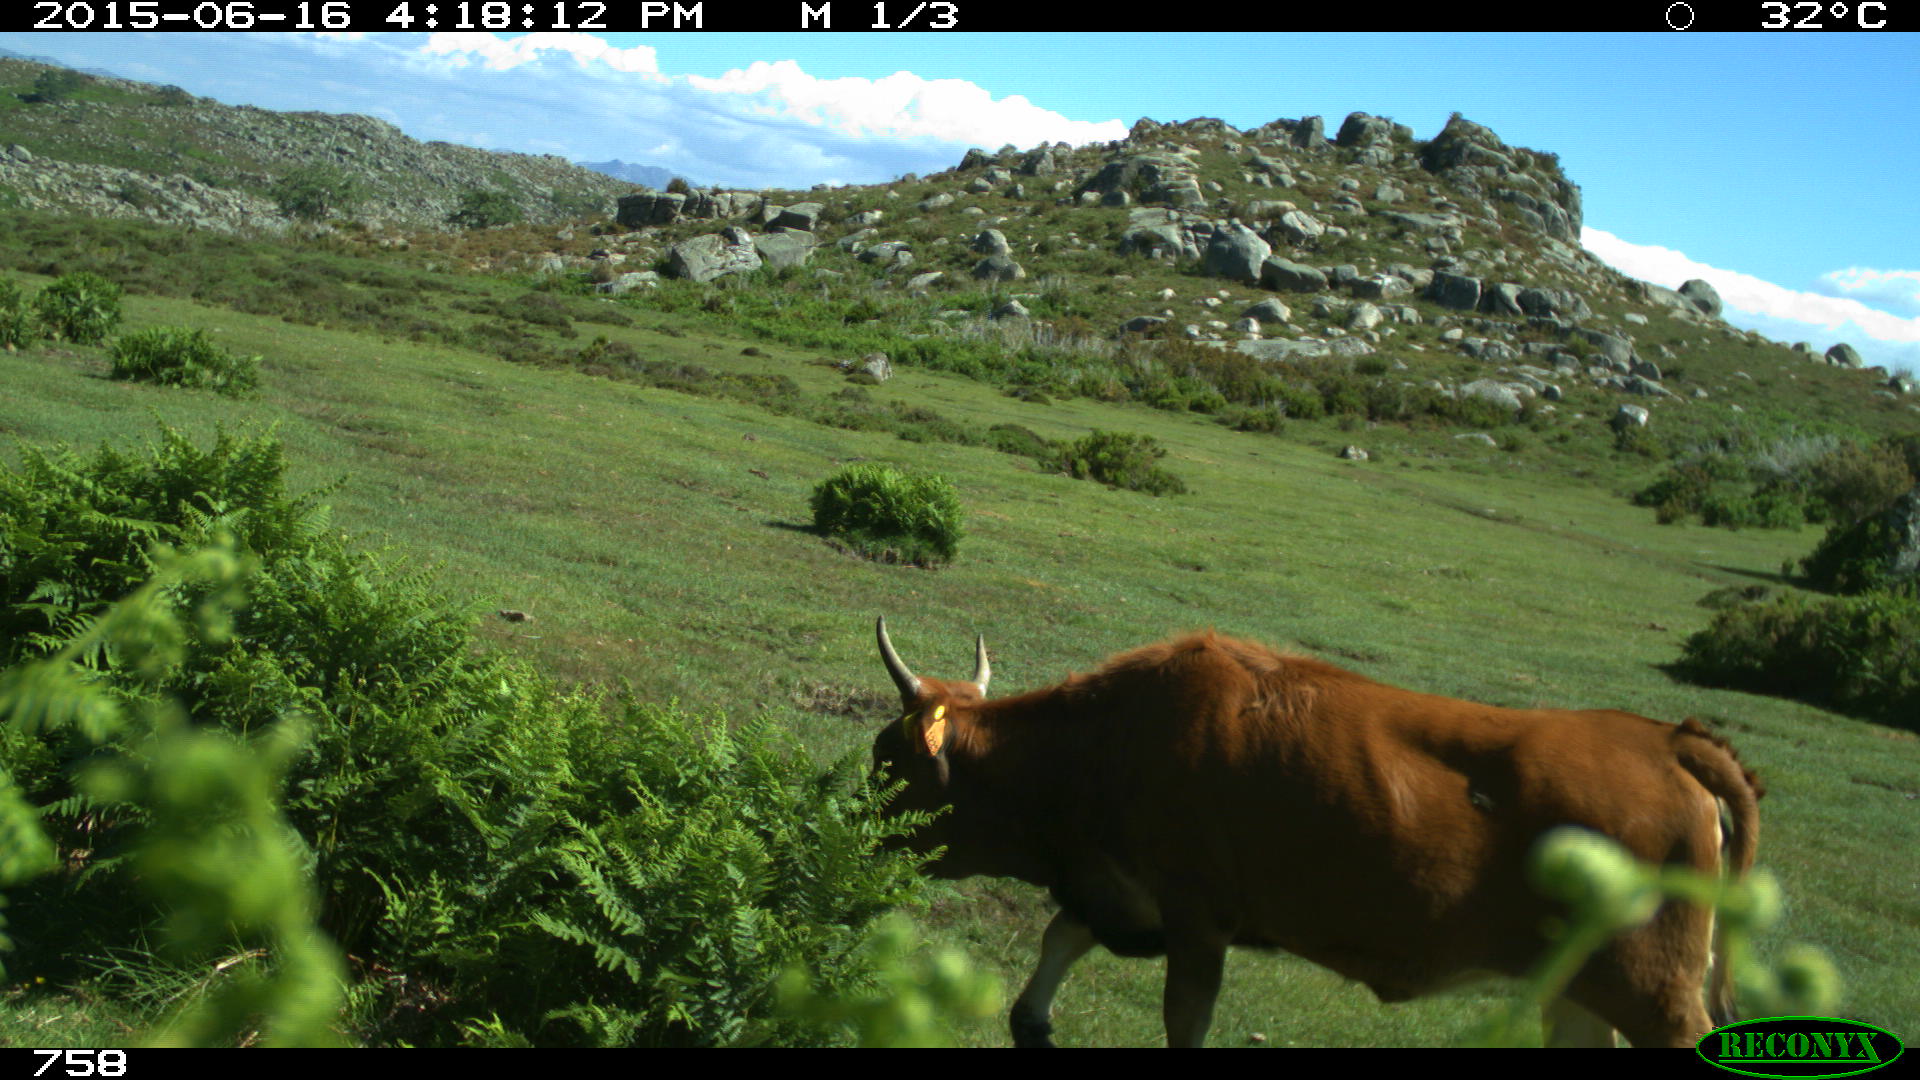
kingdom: Animalia
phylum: Chordata
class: Mammalia
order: Artiodactyla
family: Bovidae
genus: Bos
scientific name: Bos taurus
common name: Domesticated cattle
